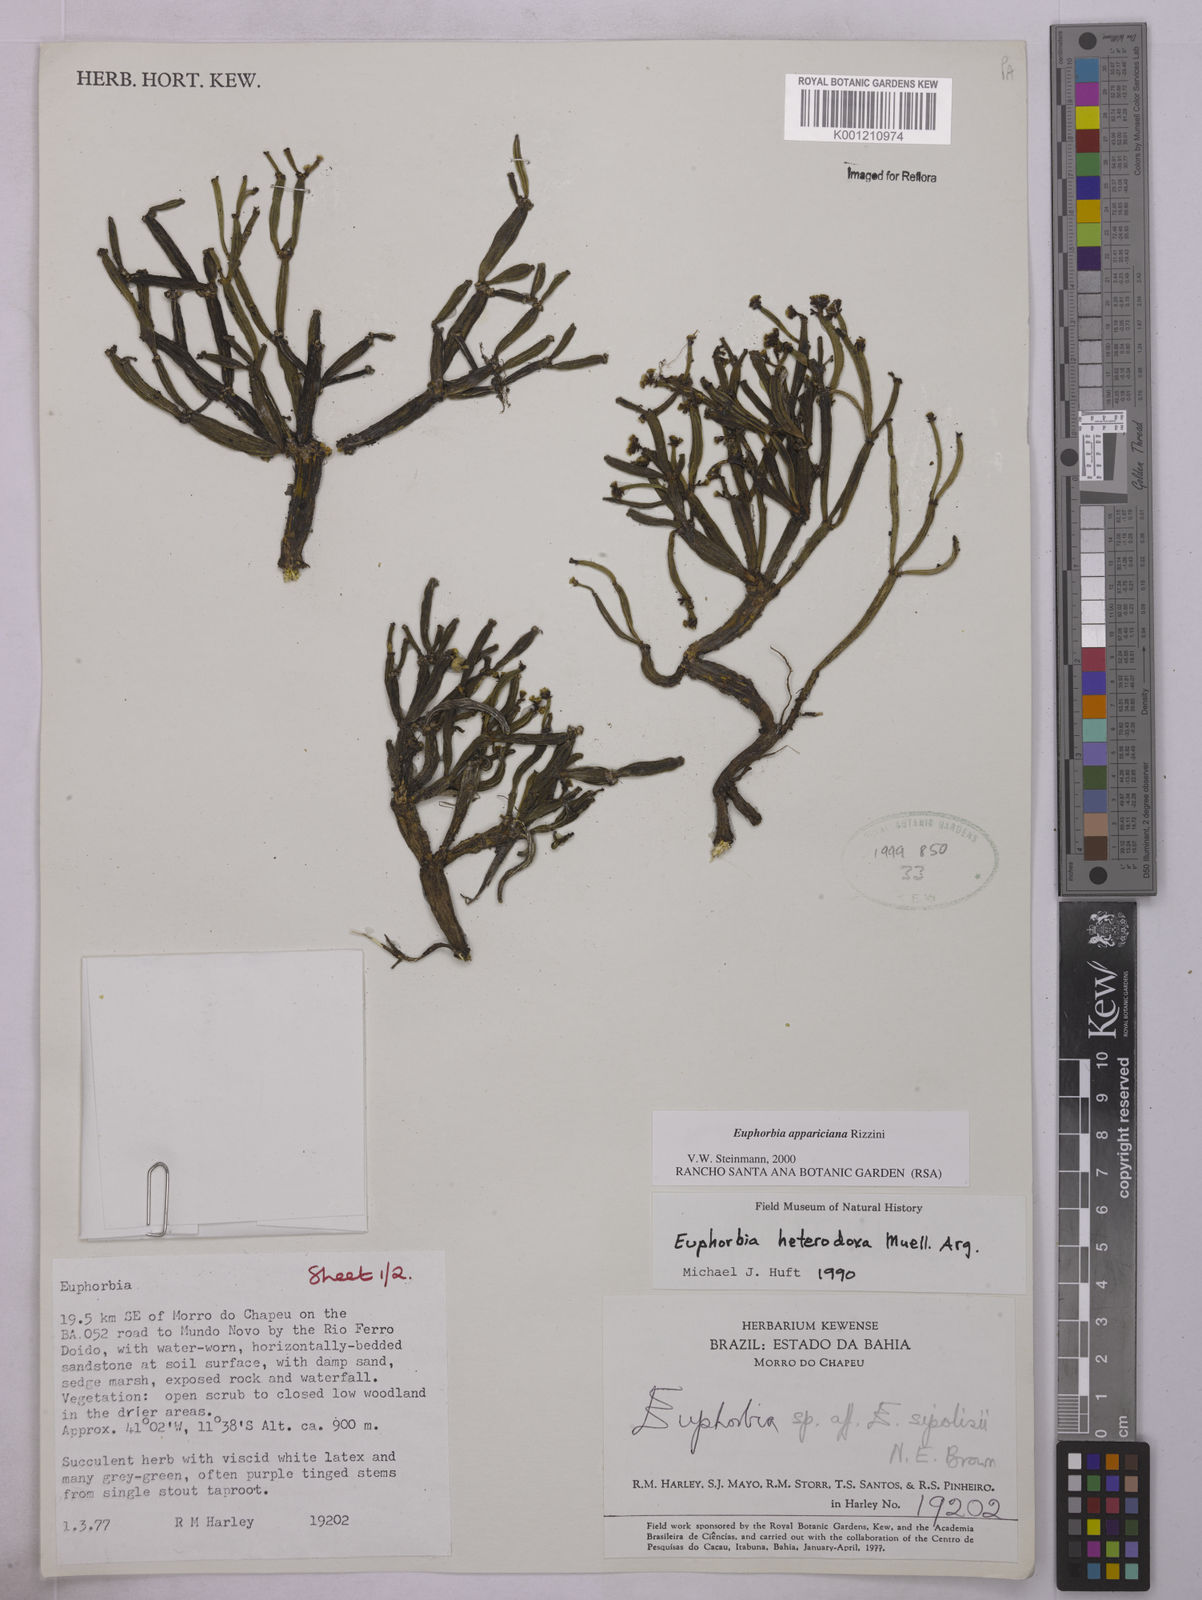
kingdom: Plantae
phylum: Tracheophyta
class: Magnoliopsida
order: Malpighiales
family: Euphorbiaceae
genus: Euphorbia
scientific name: Euphorbia appariciana
